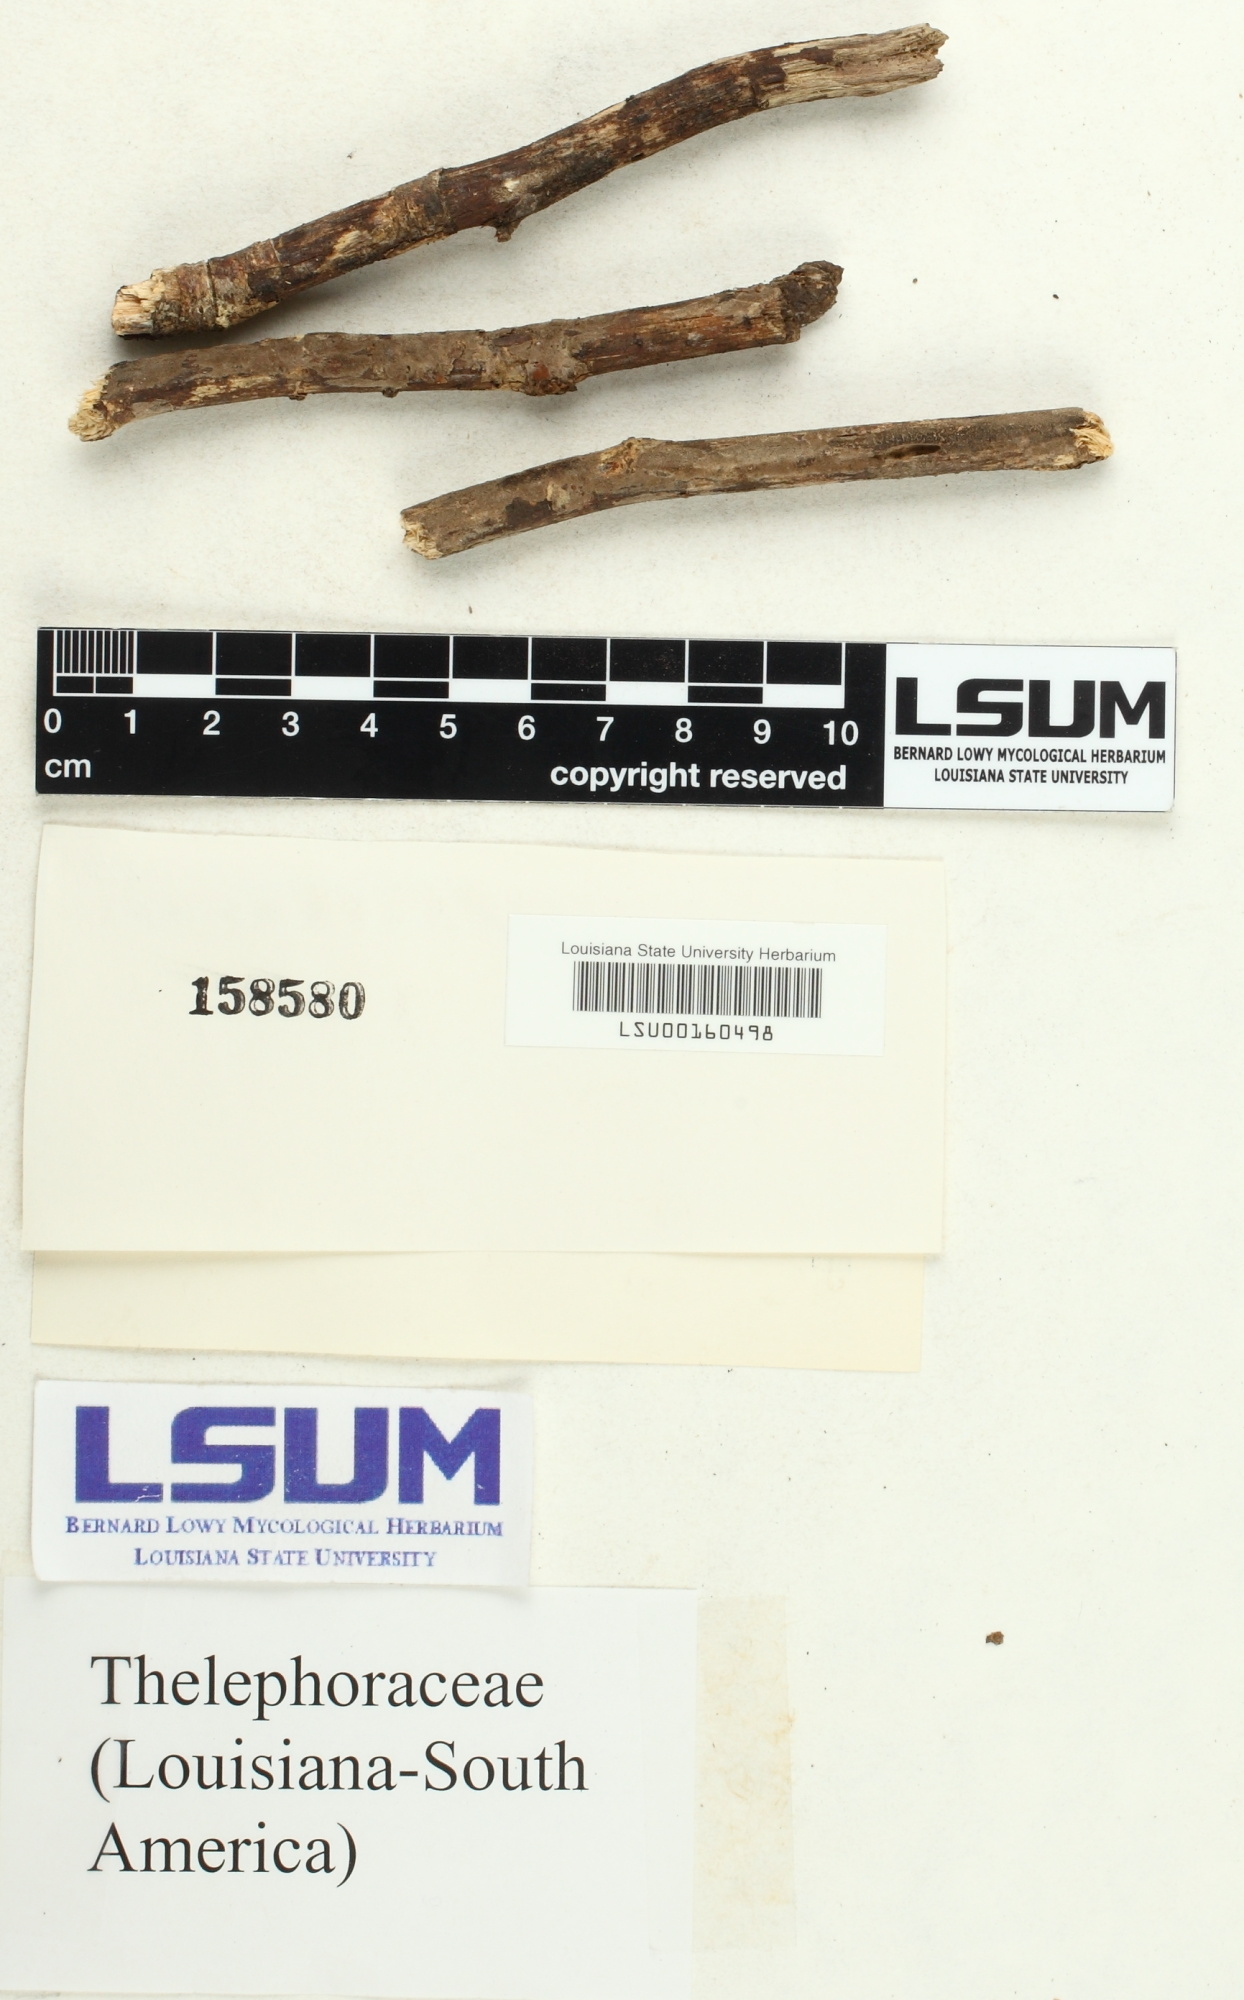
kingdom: Fungi
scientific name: Fungi
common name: Fungi
